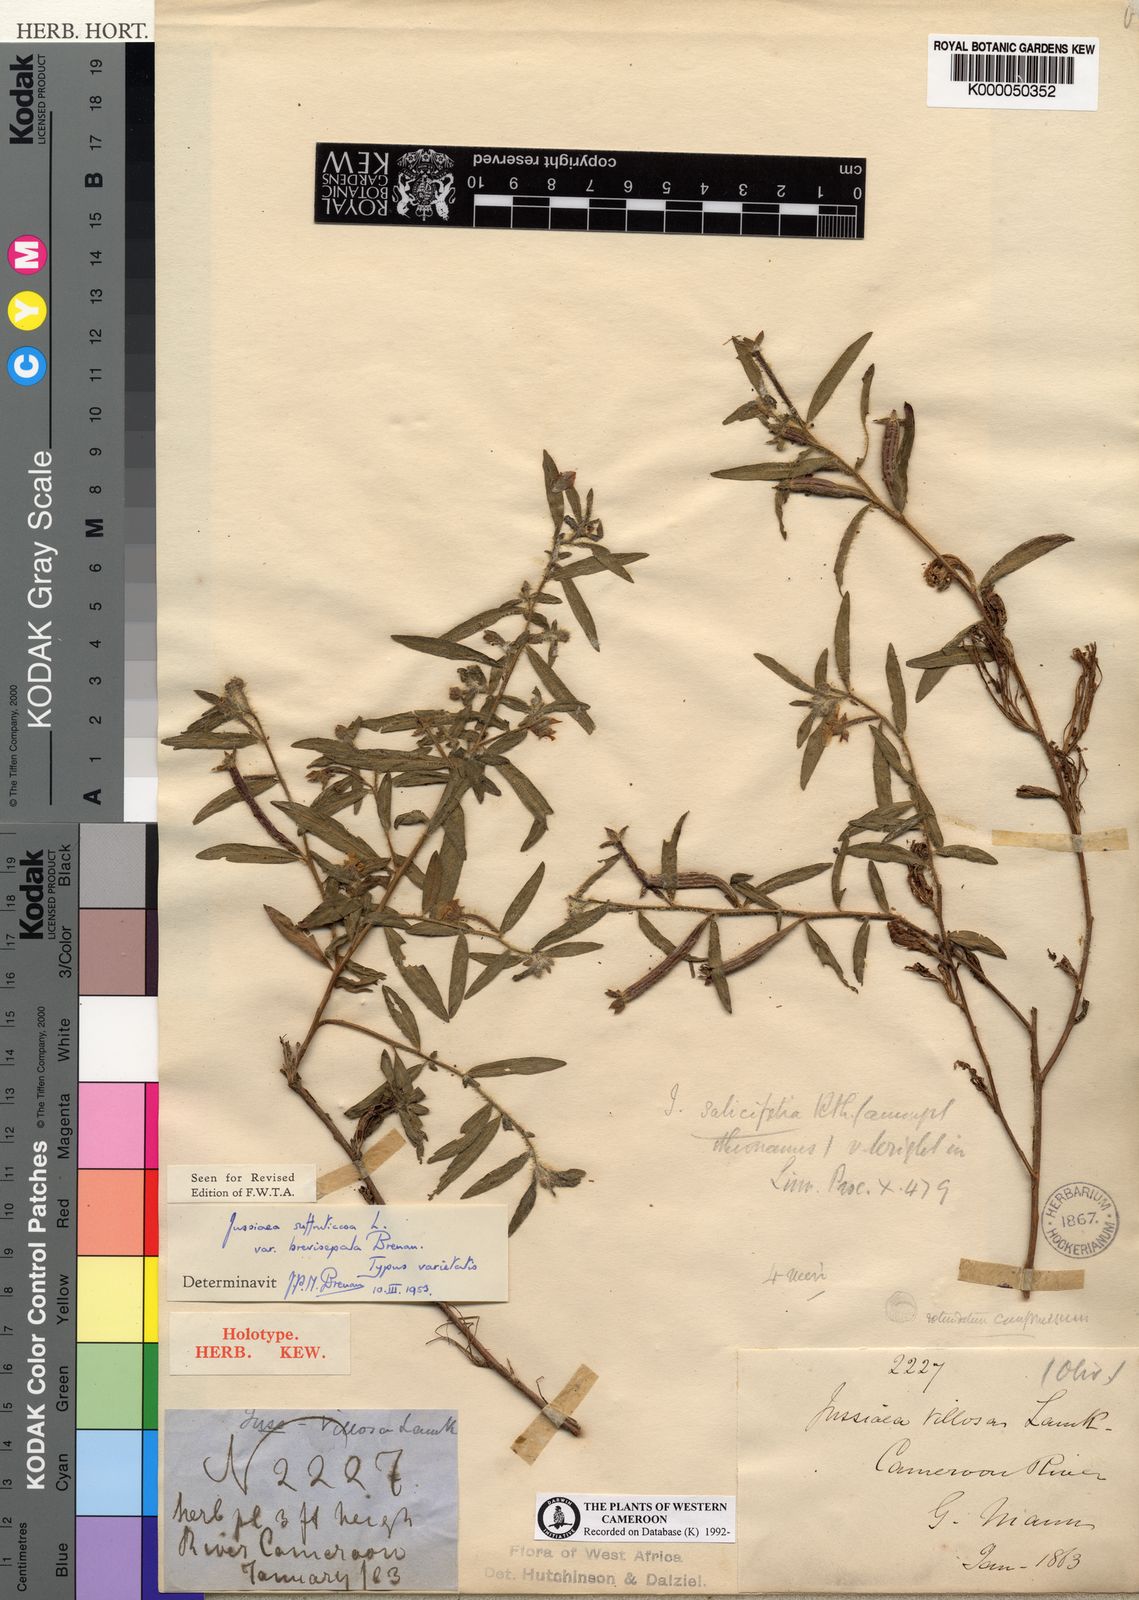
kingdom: Plantae
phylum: Tracheophyta
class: Magnoliopsida
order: Myrtales
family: Onagraceae
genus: Ludwigia
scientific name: Ludwigia
